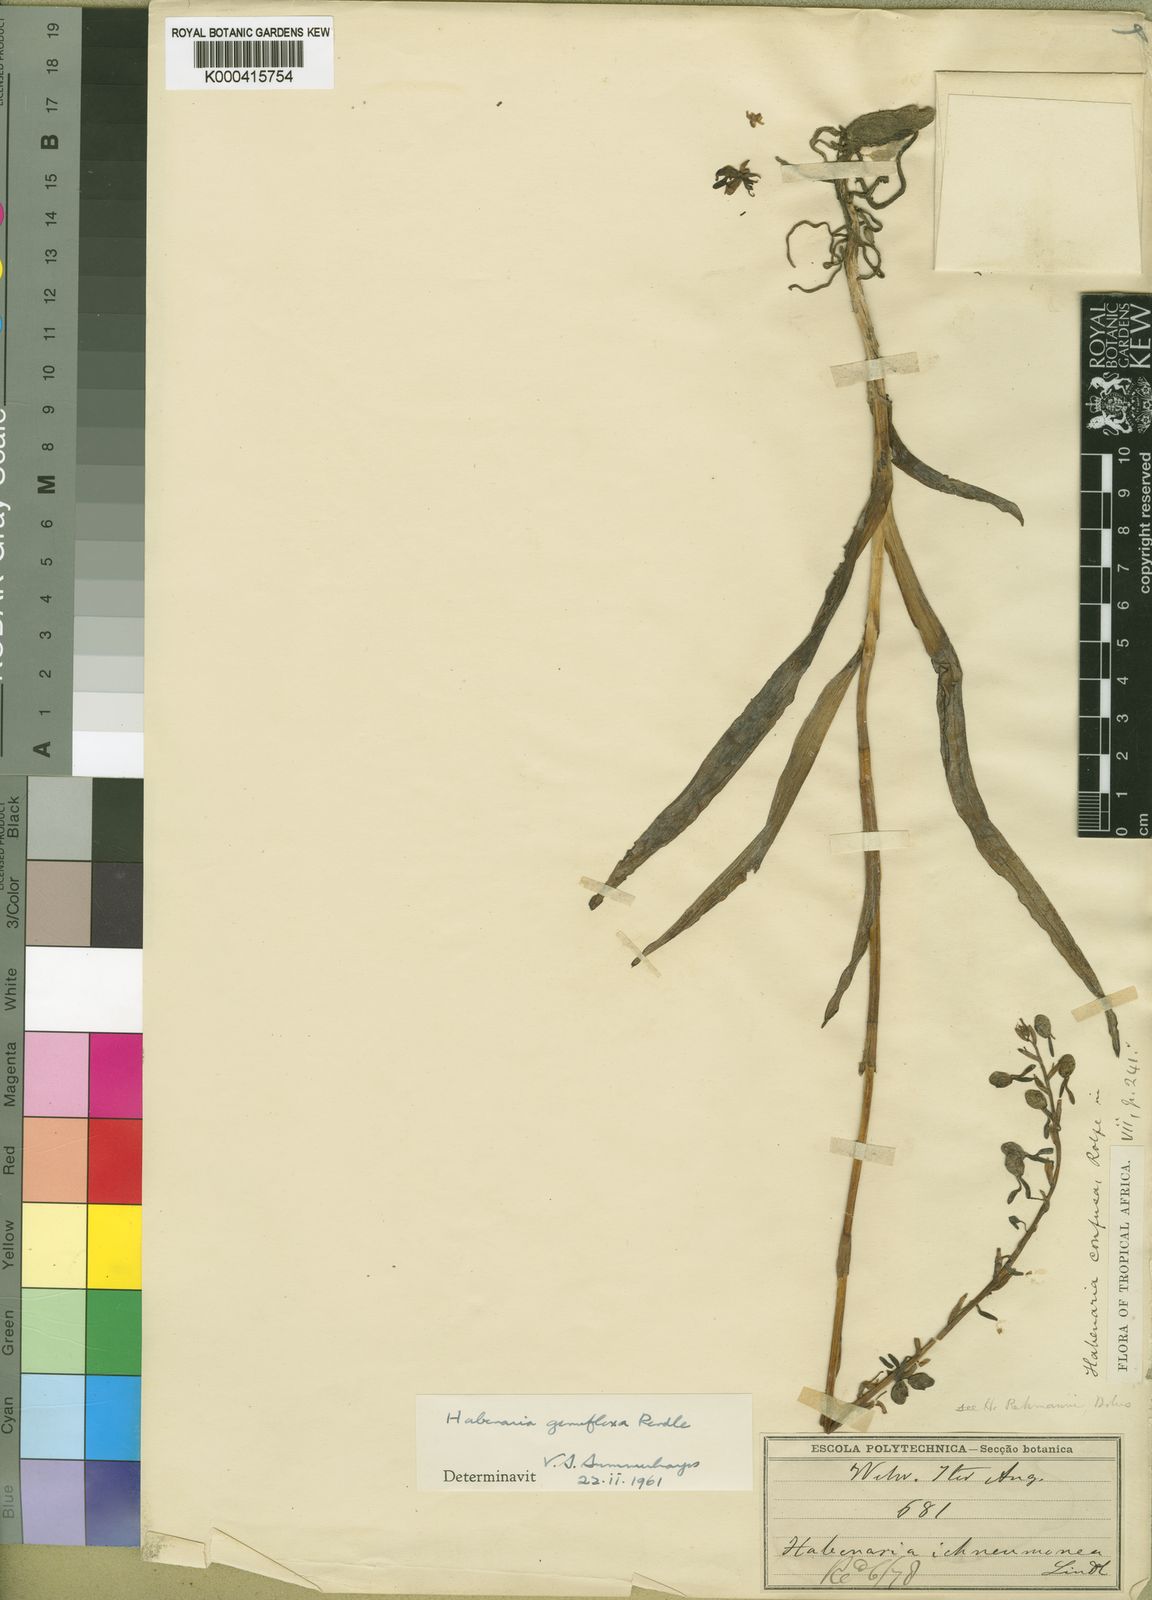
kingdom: Plantae
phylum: Tracheophyta
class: Liliopsida
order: Asparagales
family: Orchidaceae
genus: Habenaria
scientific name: Habenaria genuflexa
